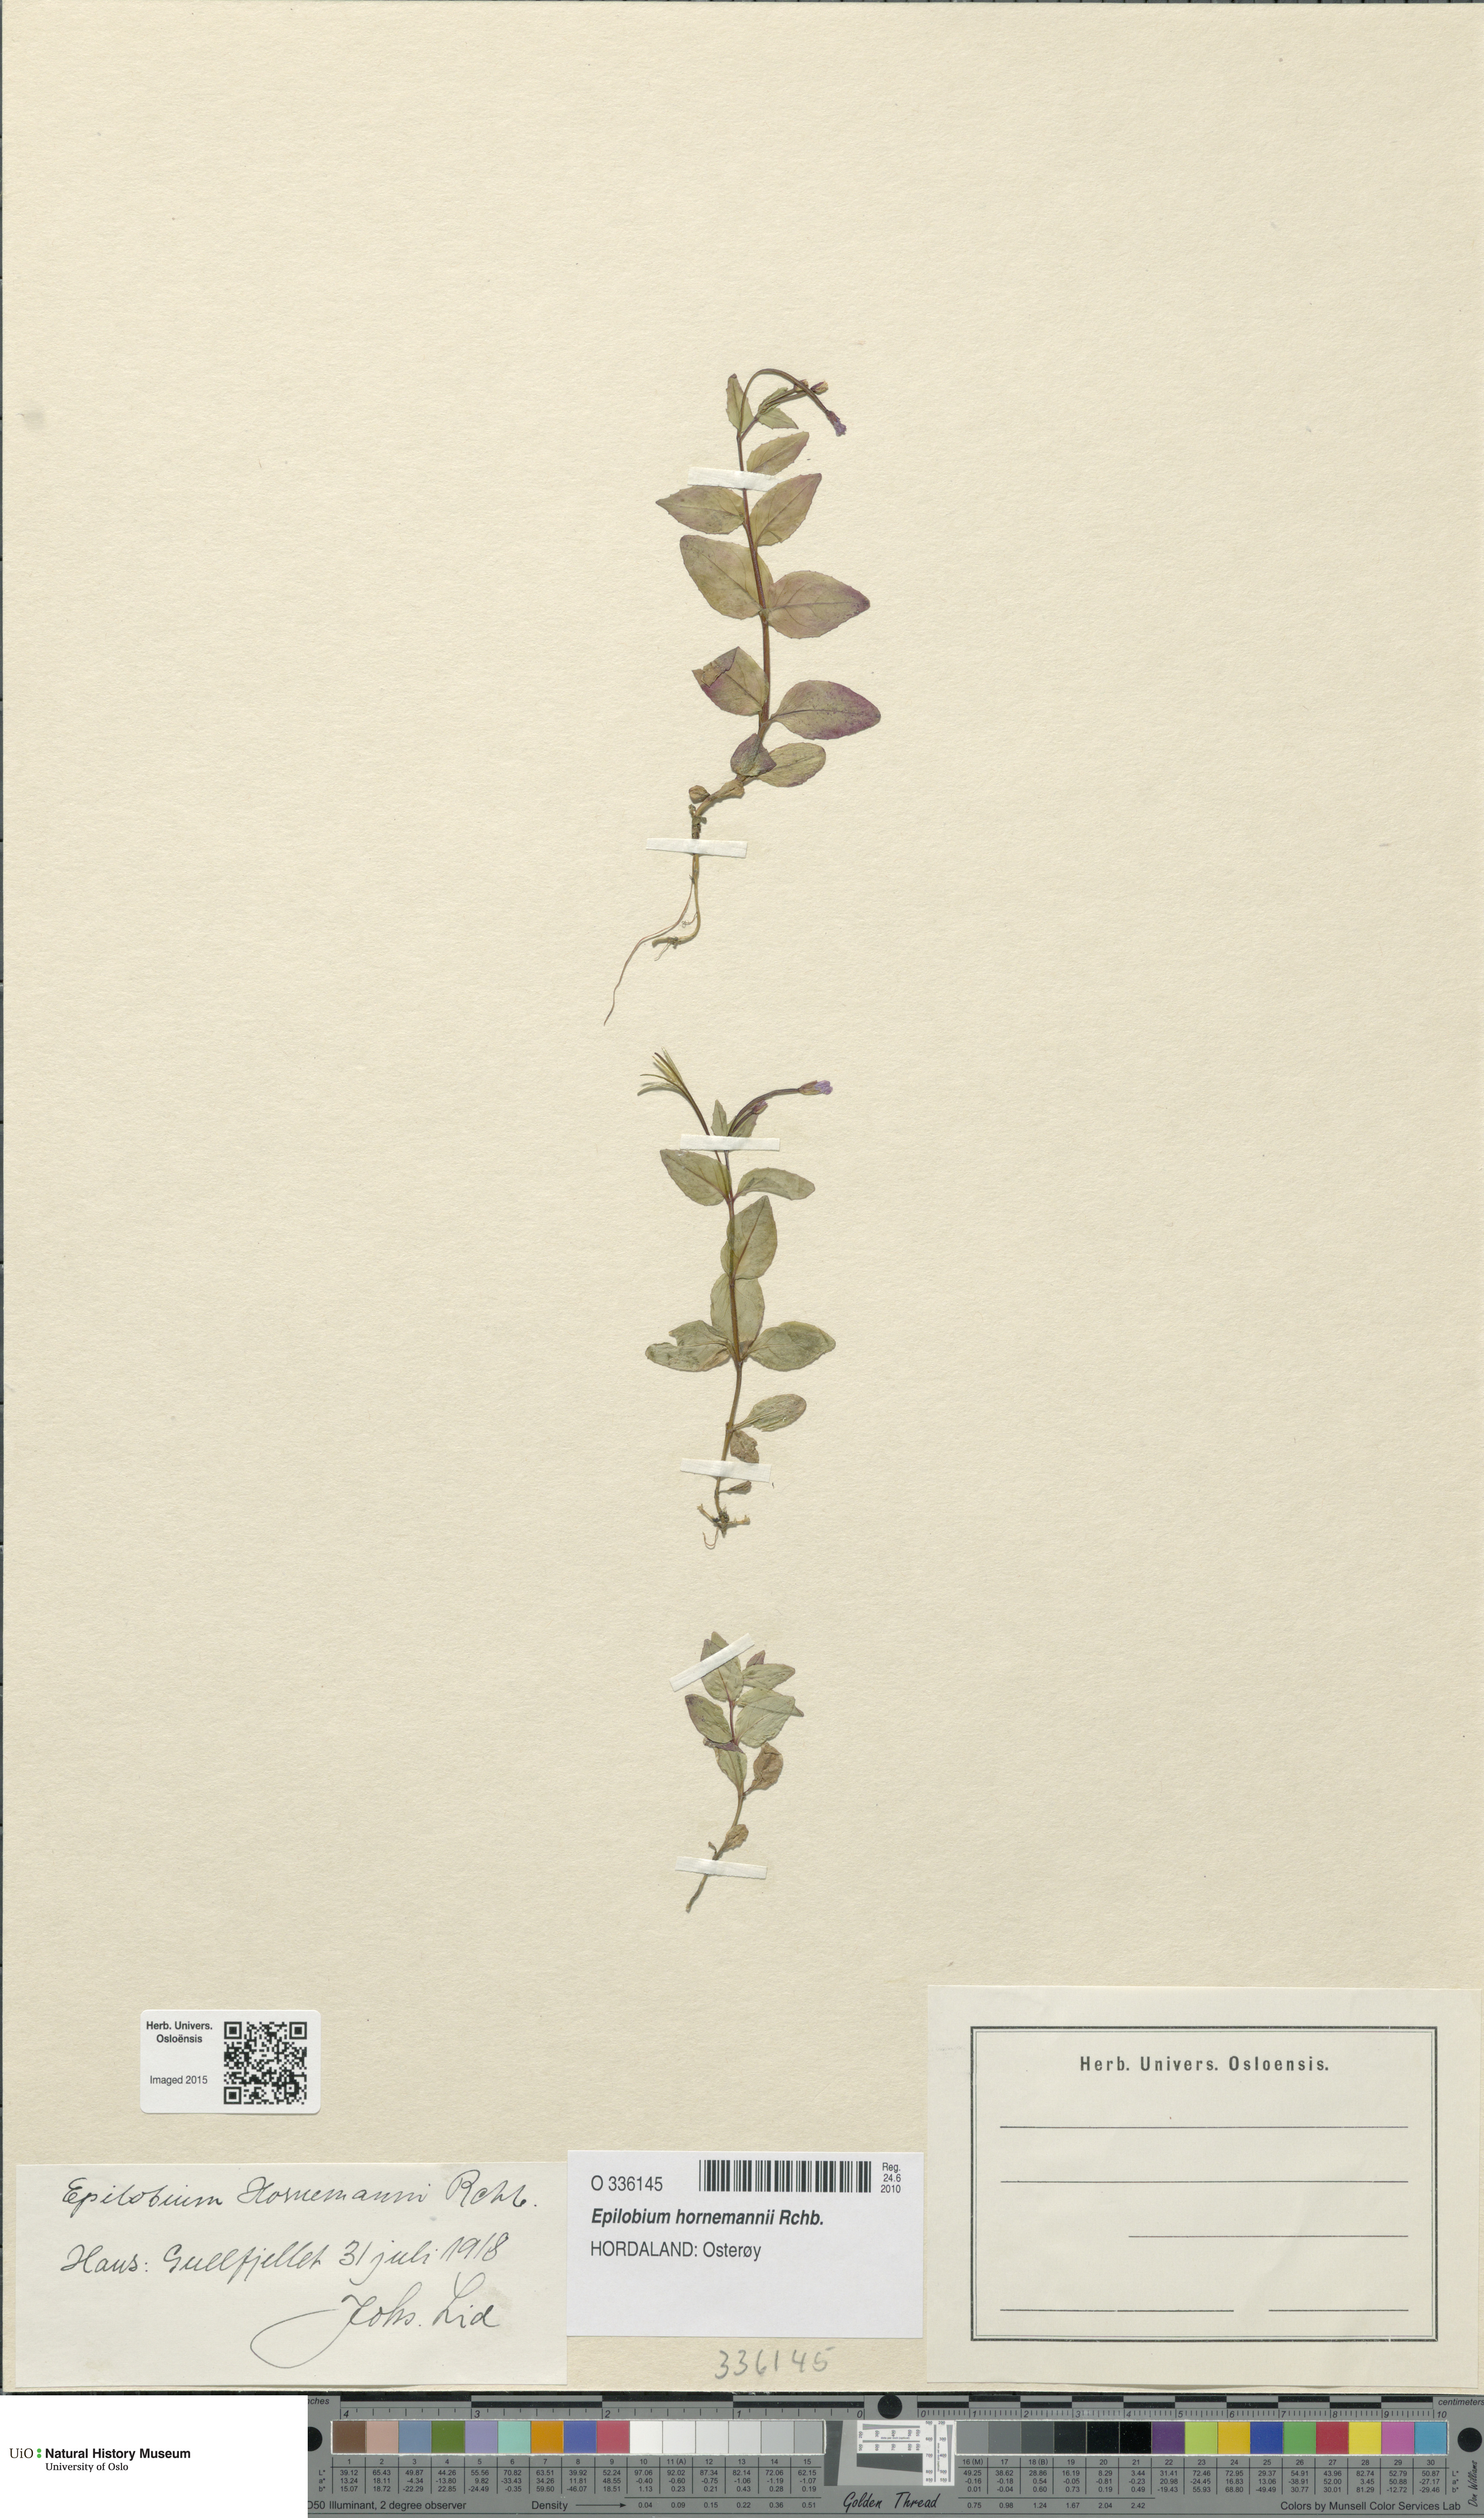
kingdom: Plantae
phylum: Tracheophyta
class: Magnoliopsida
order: Myrtales
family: Onagraceae
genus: Epilobium
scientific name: Epilobium hornemannii
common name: Hornemann's willowherb
